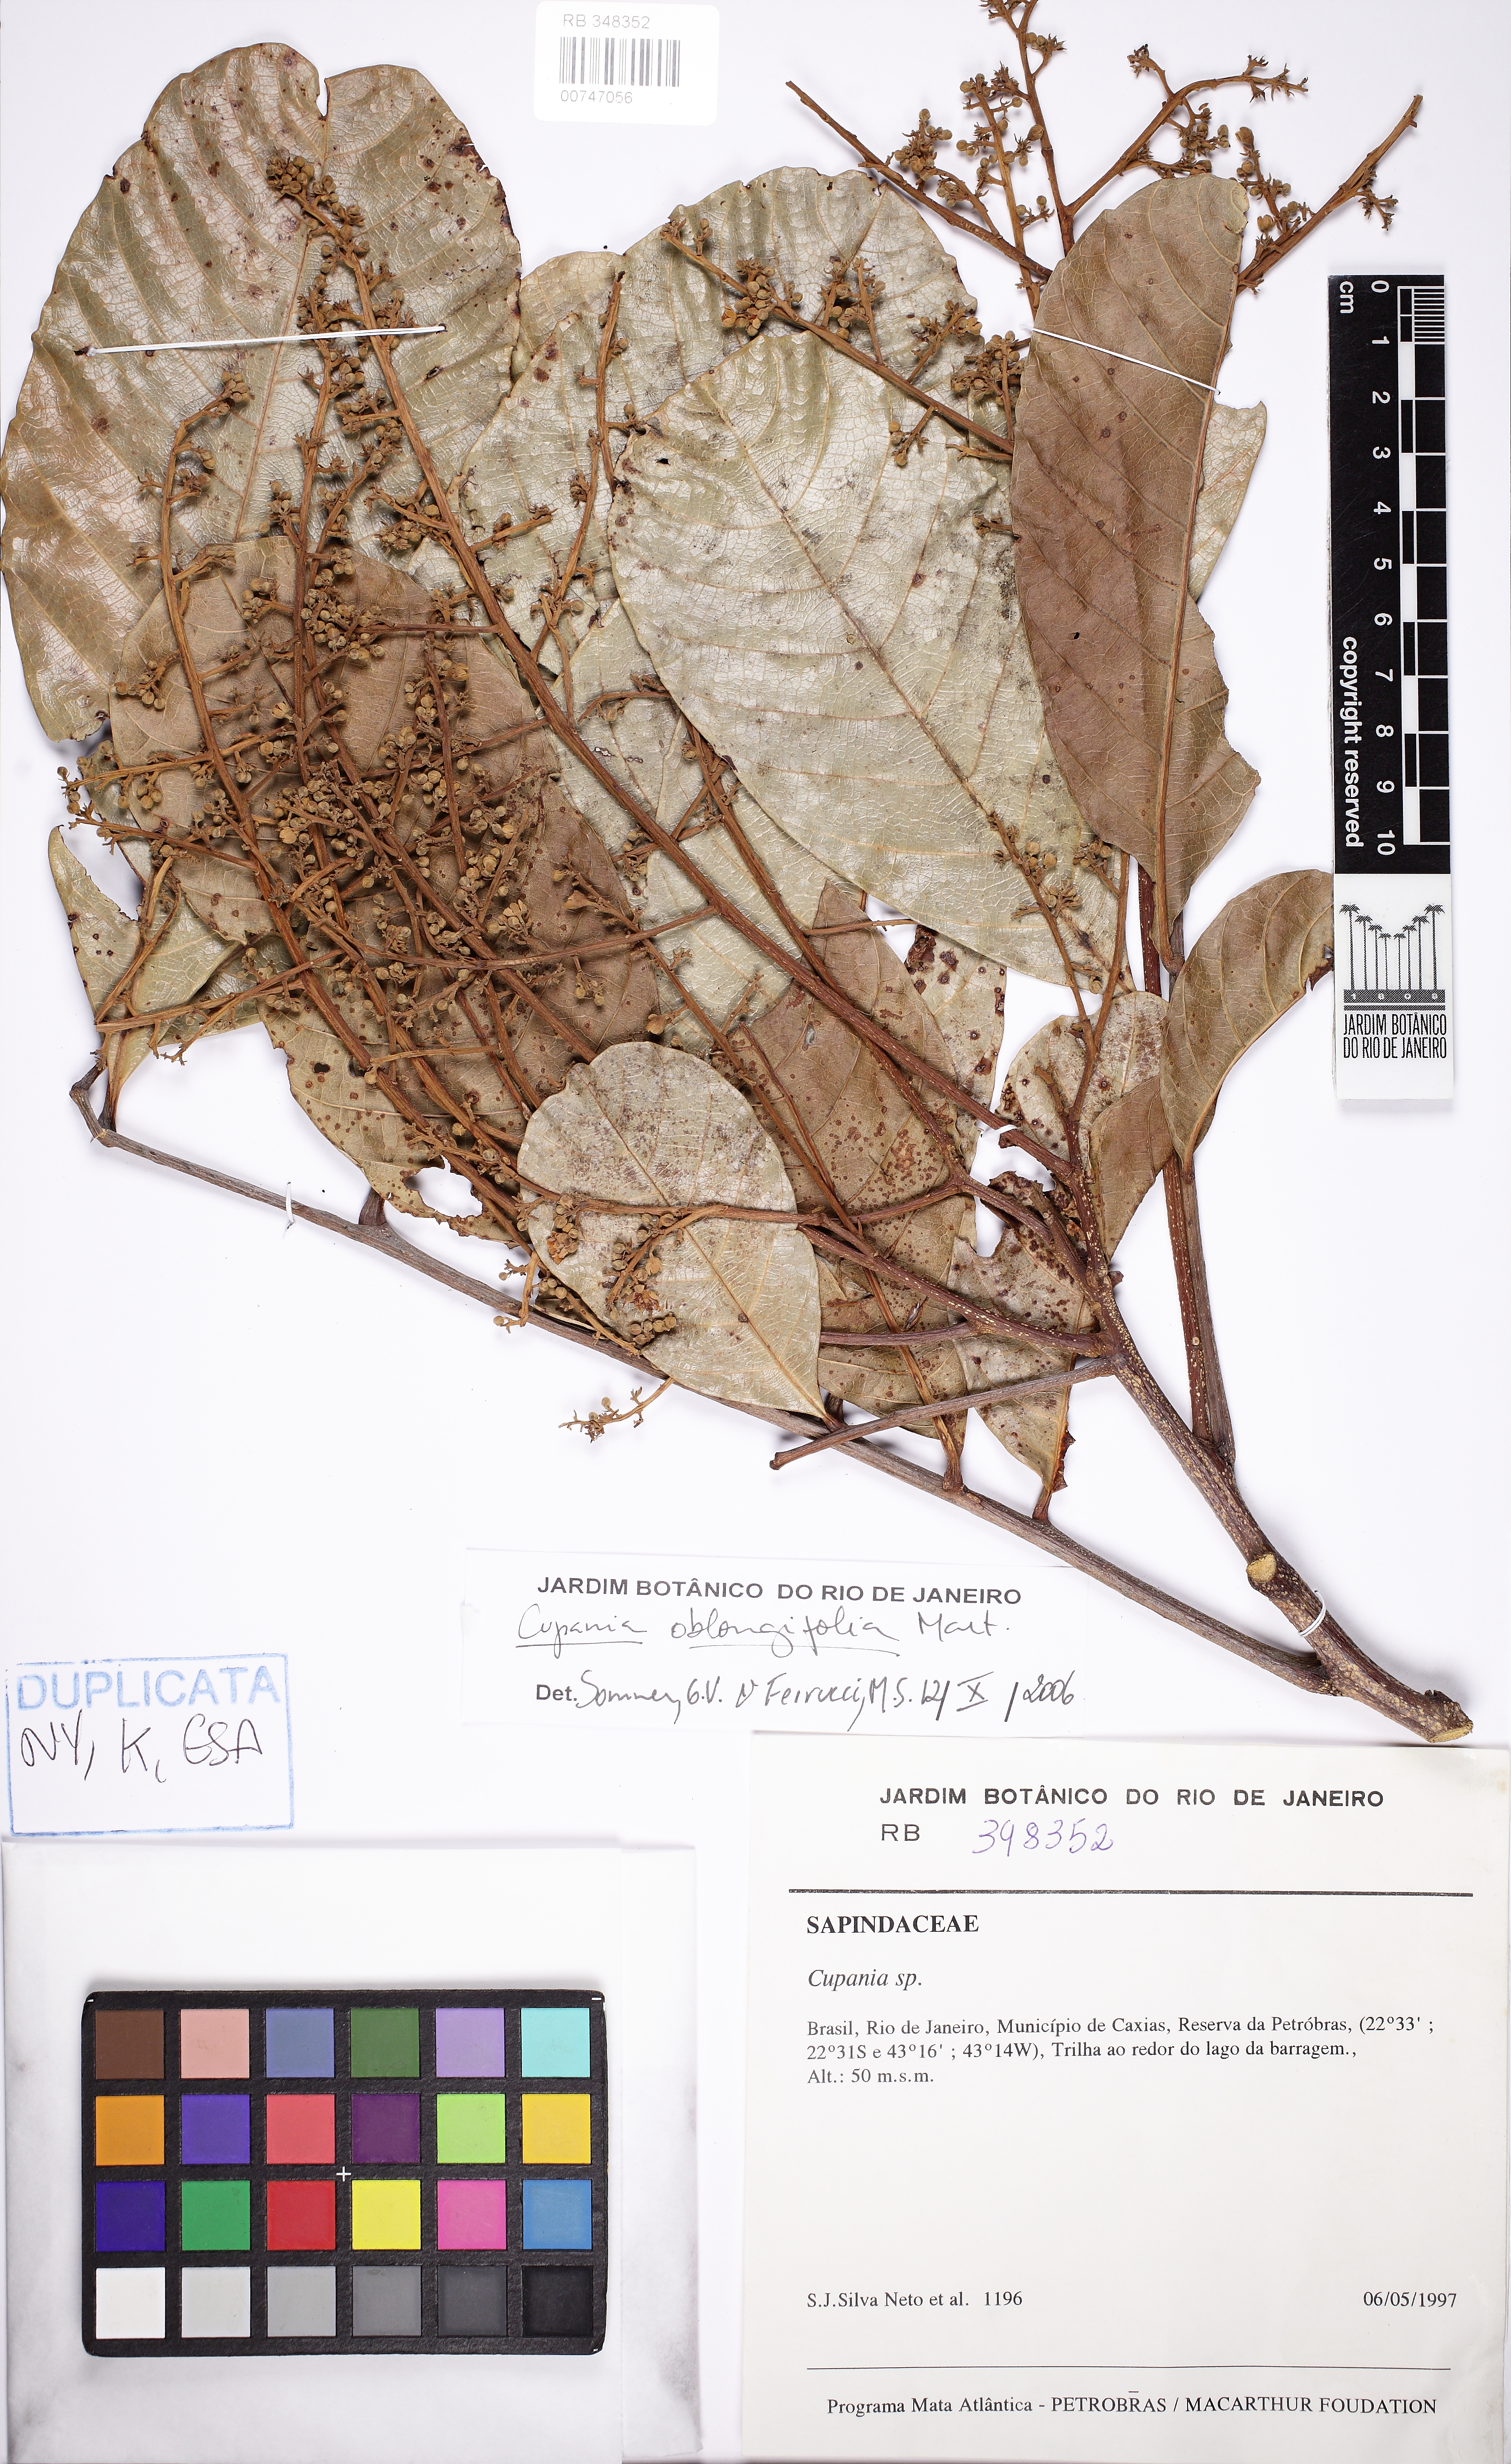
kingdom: Plantae
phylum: Tracheophyta
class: Magnoliopsida
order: Sapindales
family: Sapindaceae
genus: Cupania
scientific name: Cupania oblongifolia
